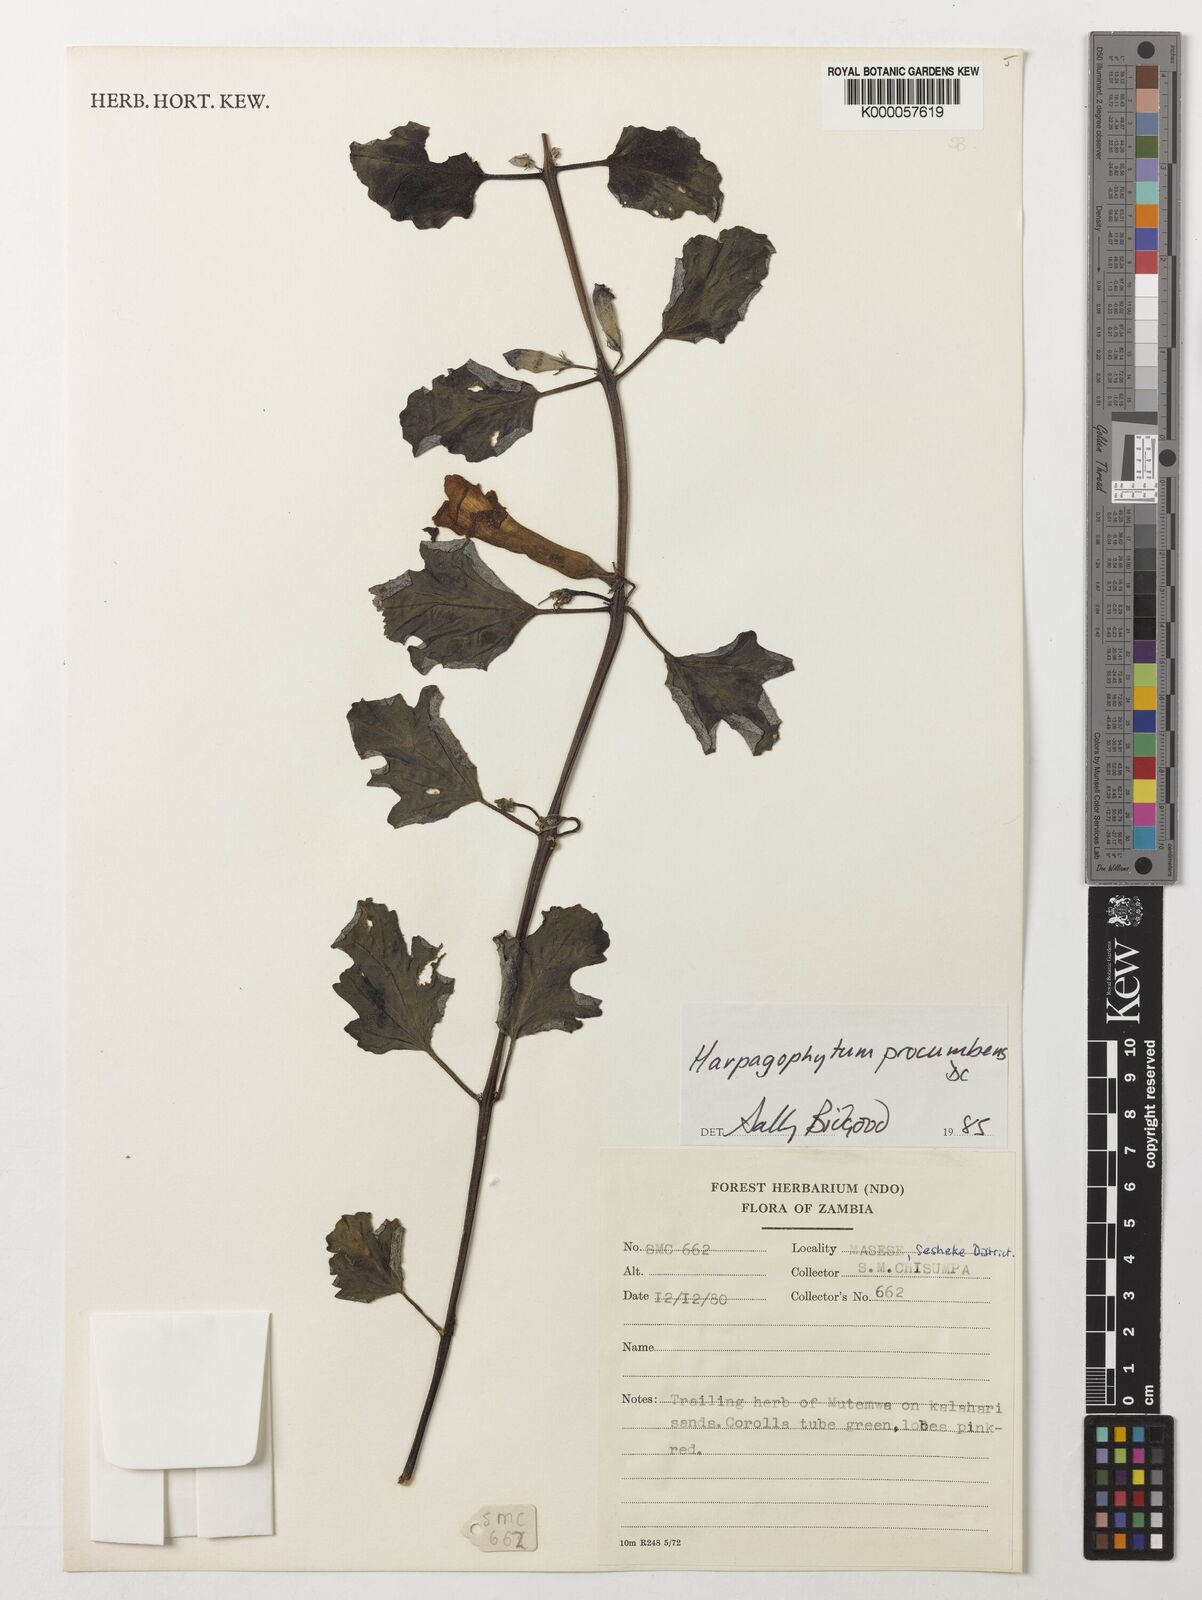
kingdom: Plantae
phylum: Tracheophyta
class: Magnoliopsida
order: Lamiales
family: Pedaliaceae
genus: Harpagophytum
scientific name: Harpagophytum procumbens
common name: Grappleplant
